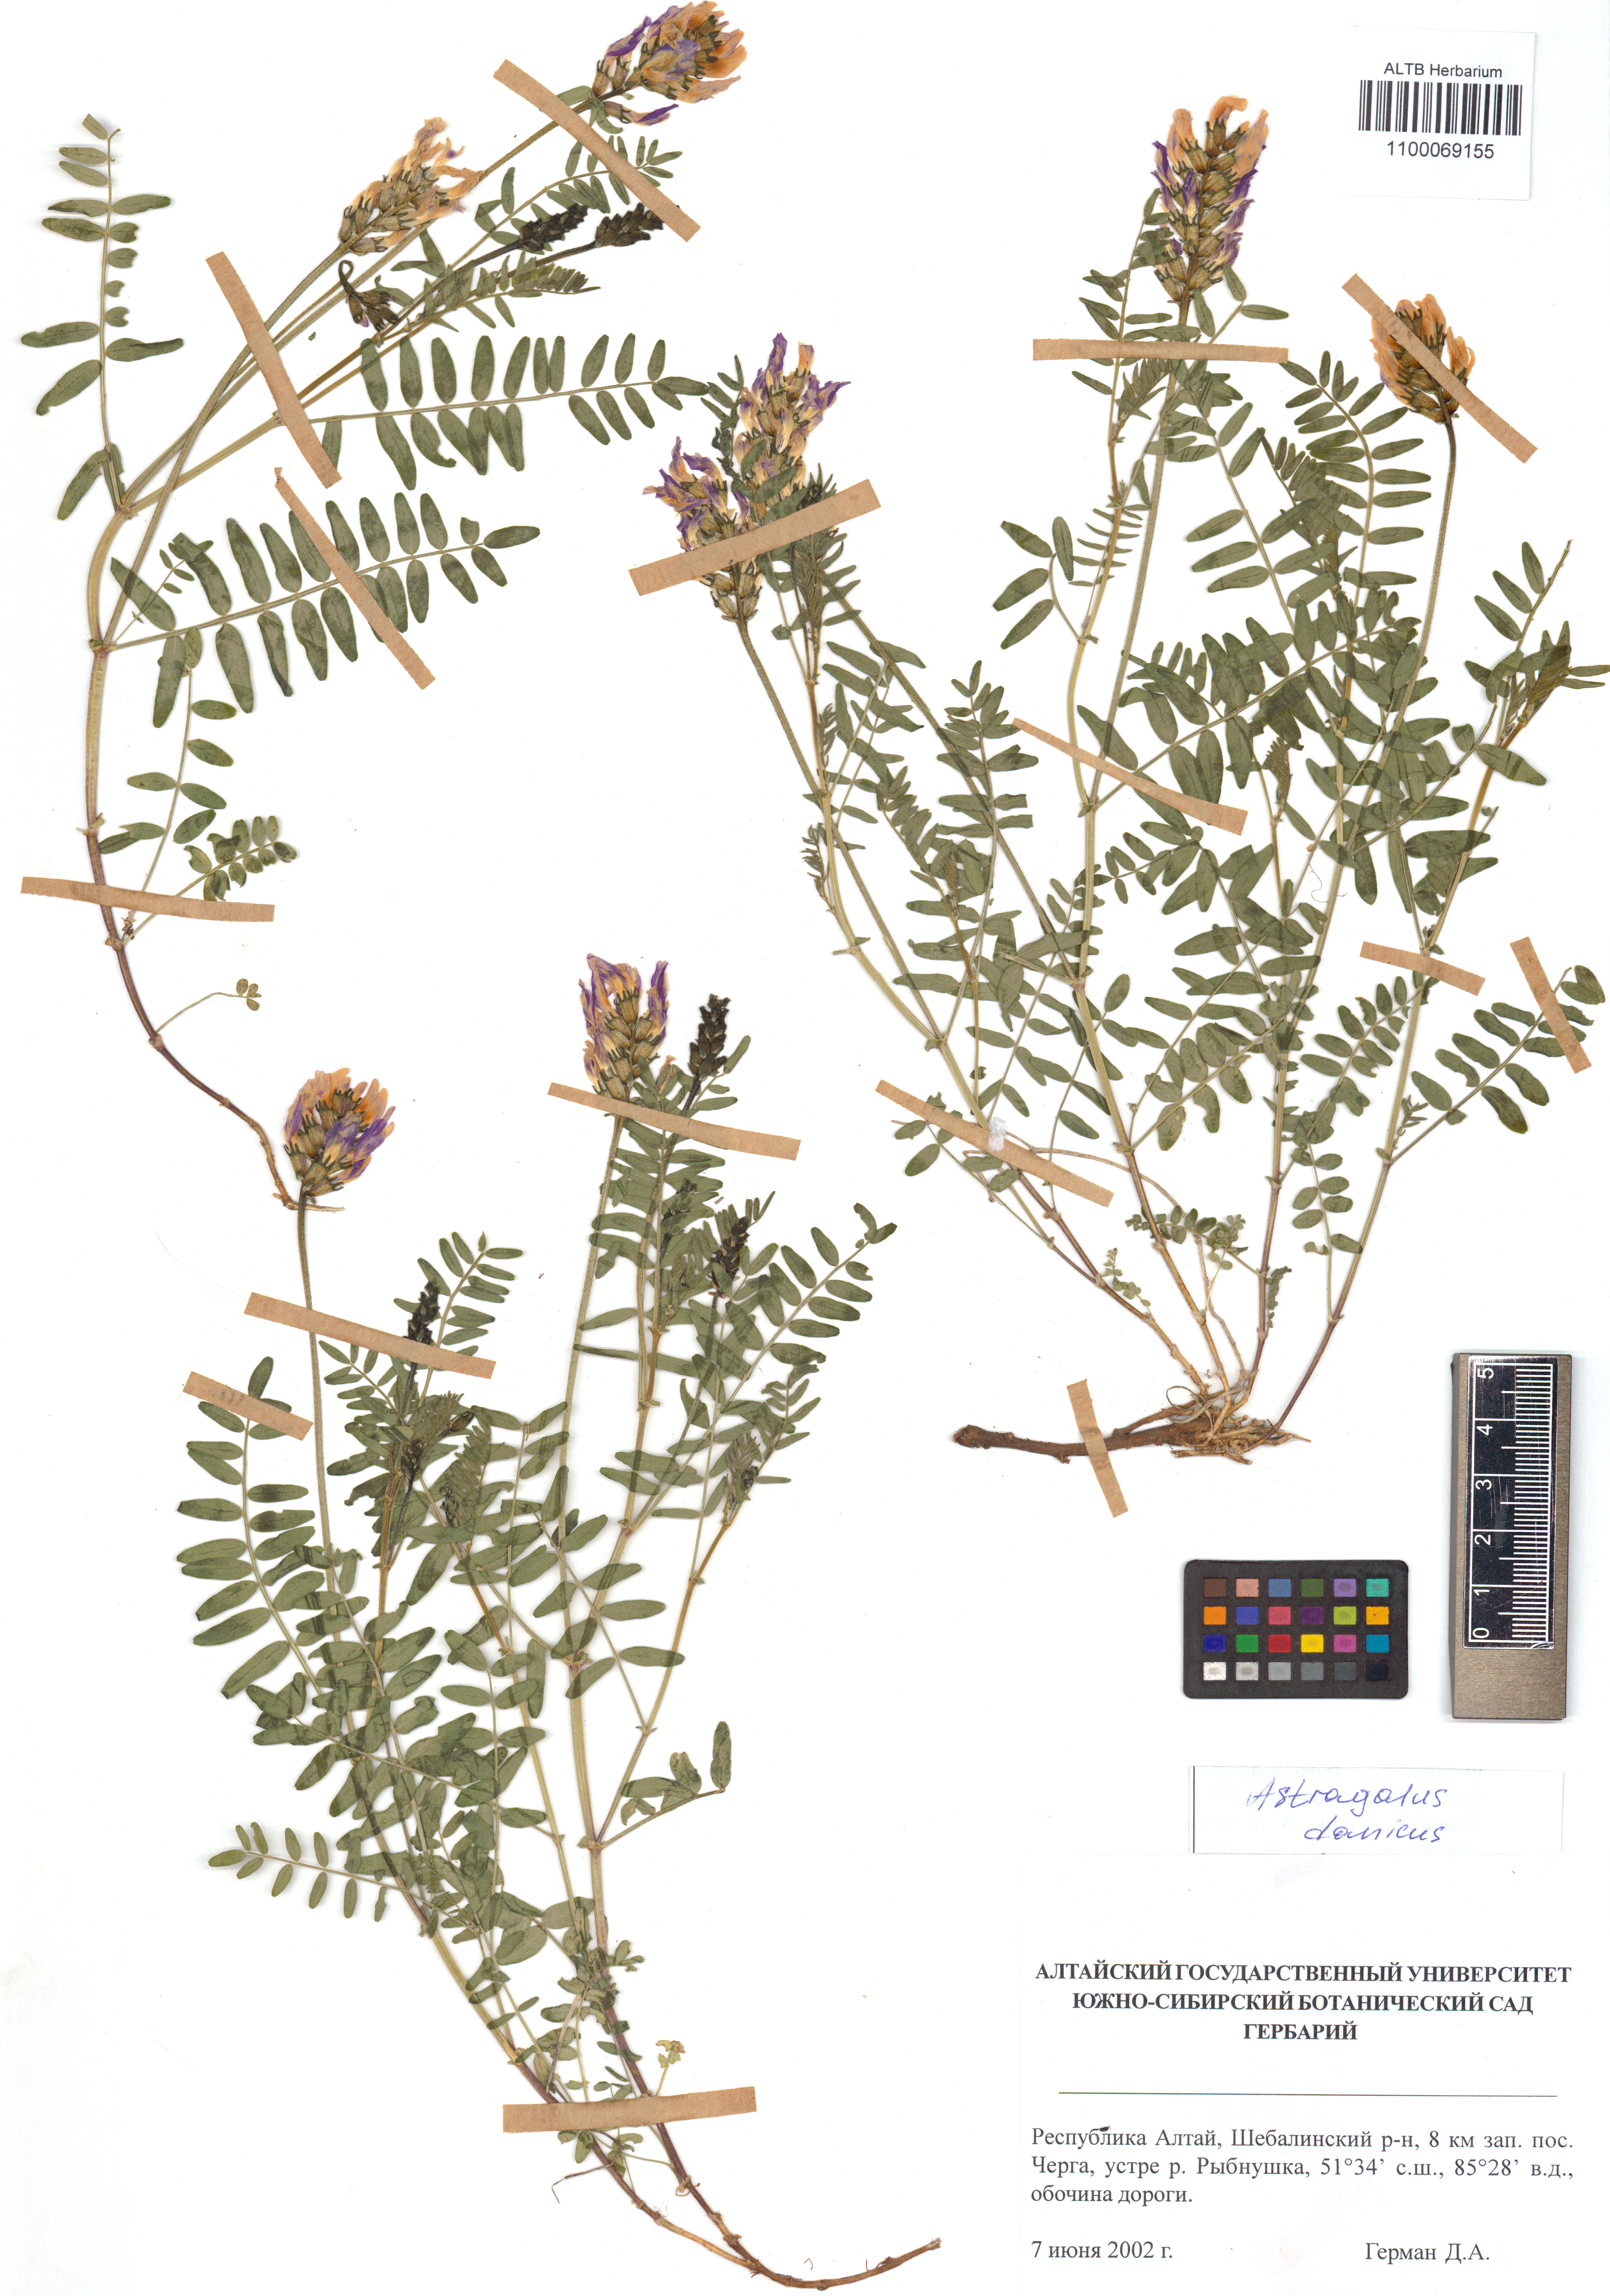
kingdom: Plantae
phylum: Tracheophyta
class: Magnoliopsida
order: Fabales
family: Fabaceae
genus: Astragalus
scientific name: Astragalus danicus
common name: Purple milk-vetch
